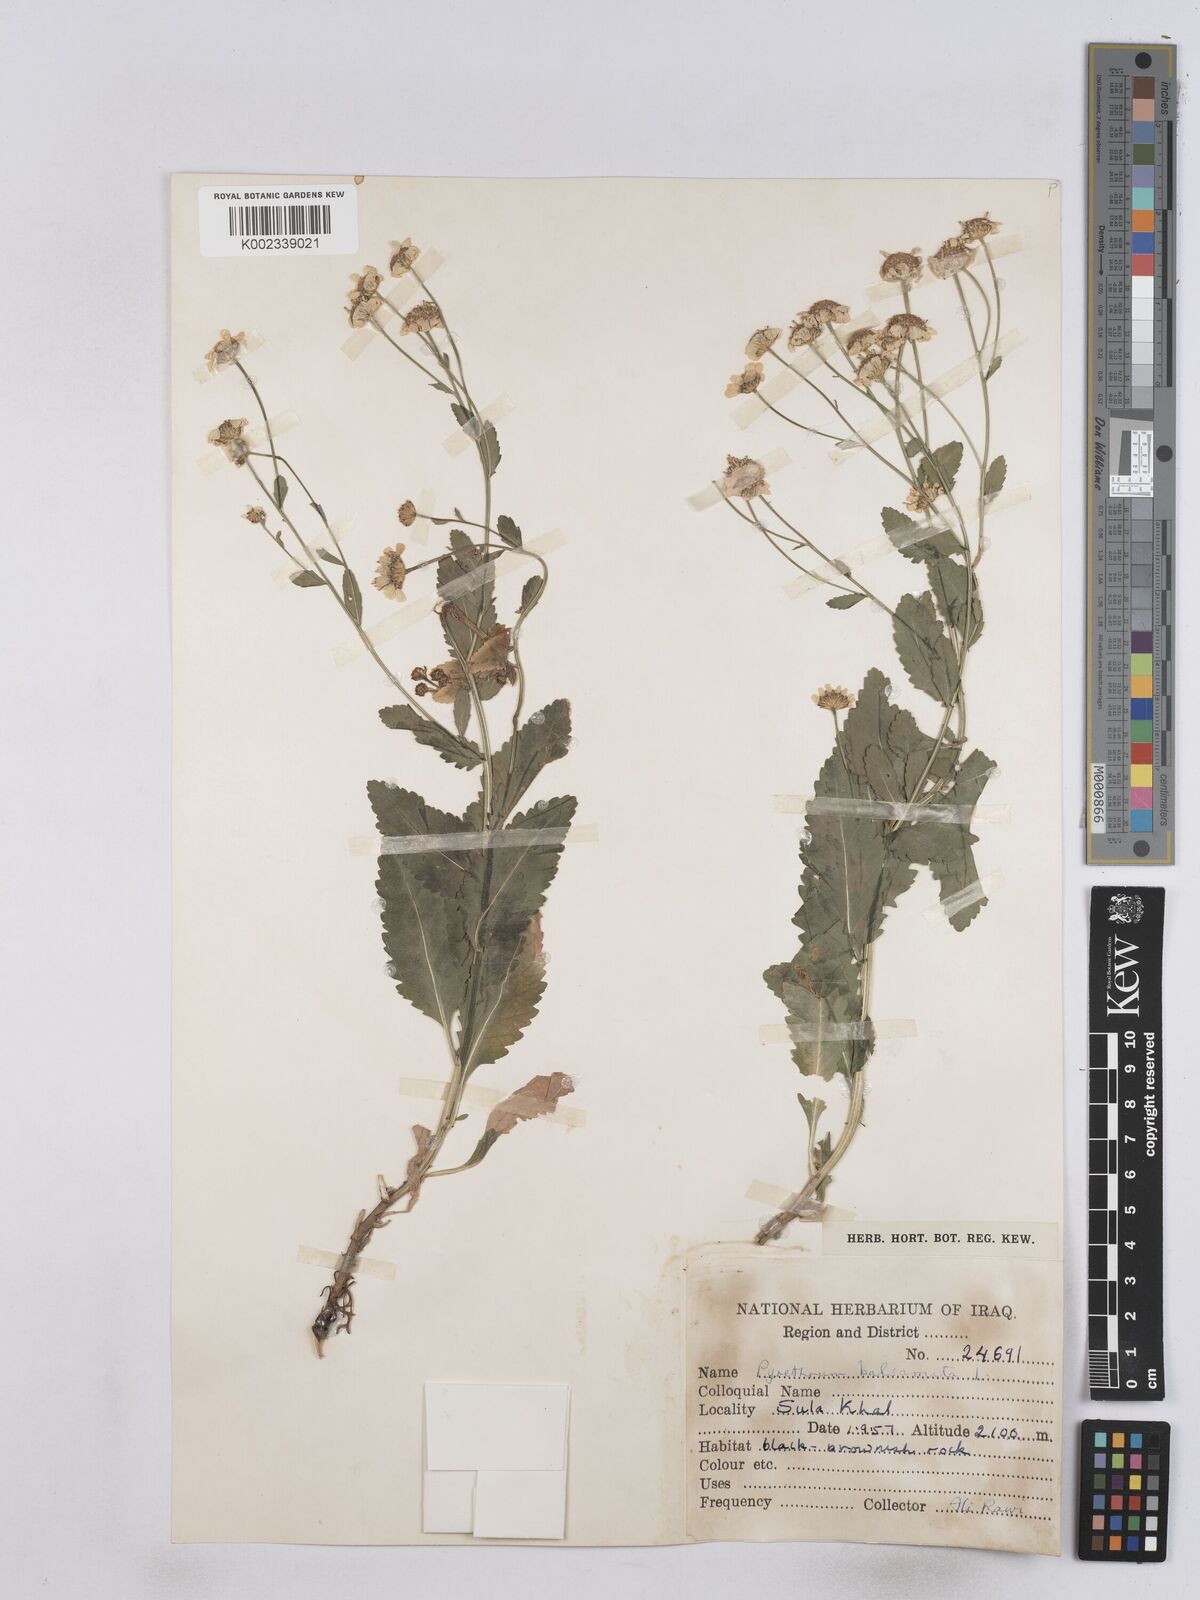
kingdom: Plantae
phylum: Tracheophyta
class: Magnoliopsida
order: Asterales
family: Asteraceae
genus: Tanacetum
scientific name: Tanacetum balsamitoides
